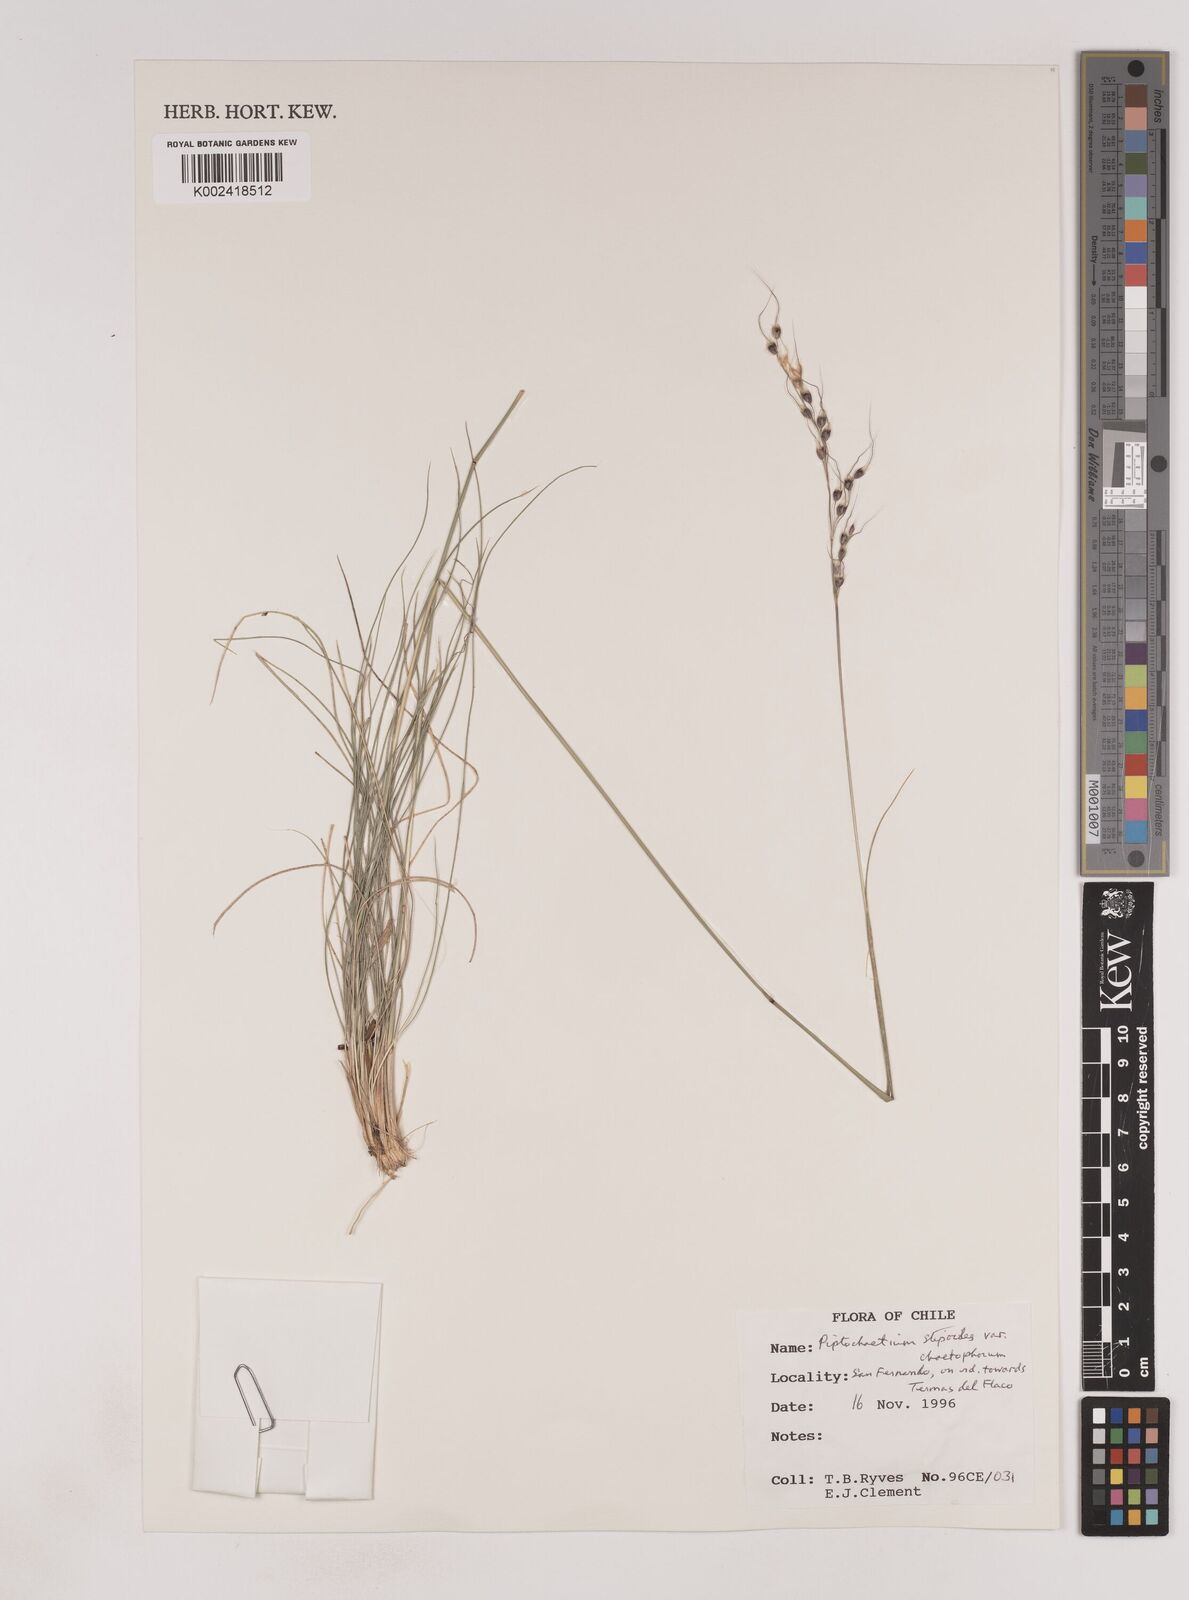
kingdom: Plantae
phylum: Tracheophyta
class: Liliopsida
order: Poales
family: Poaceae
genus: Piptochaetium
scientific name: Piptochaetium stipoides
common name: Purple speargrass
